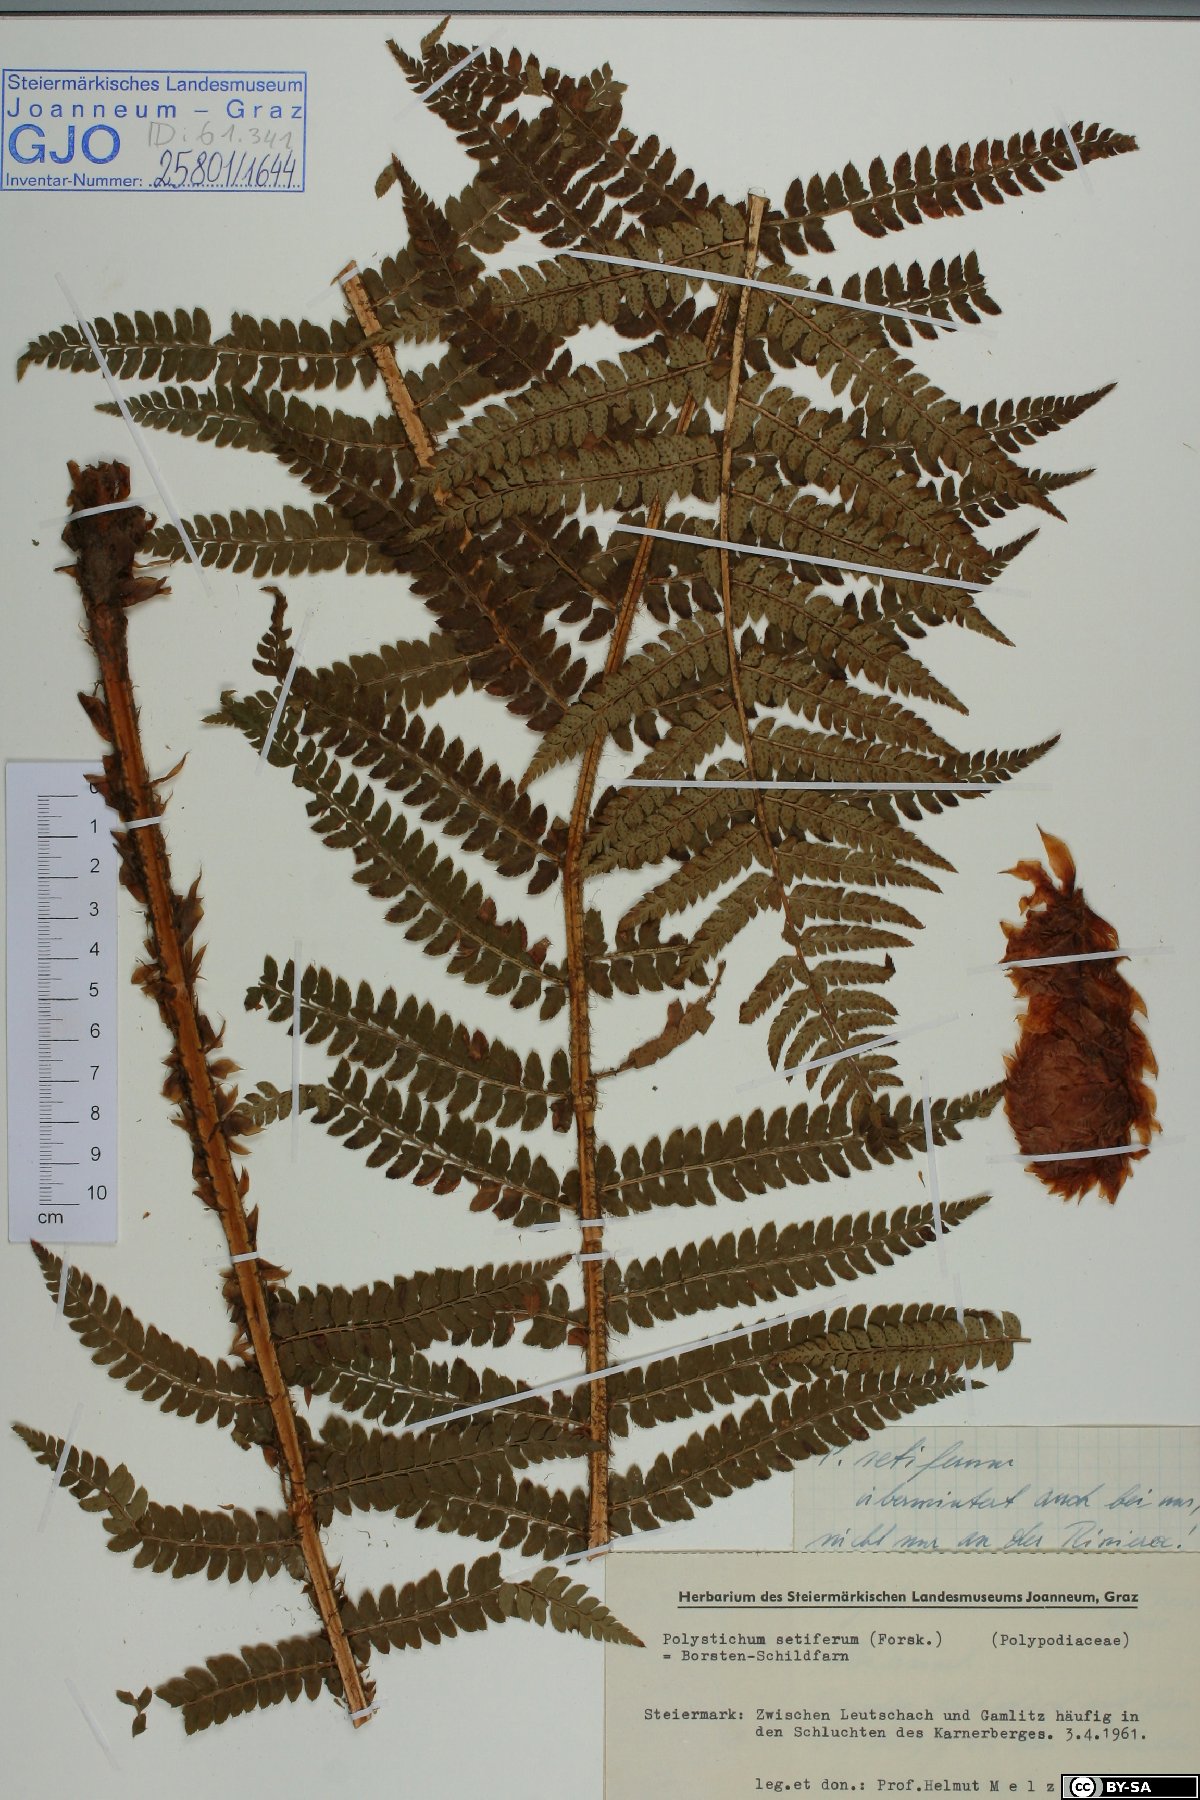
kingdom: Plantae
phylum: Tracheophyta
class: Polypodiopsida
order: Polypodiales
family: Dryopteridaceae
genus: Polystichum
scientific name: Polystichum setiferum
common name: Soft shield-fern
